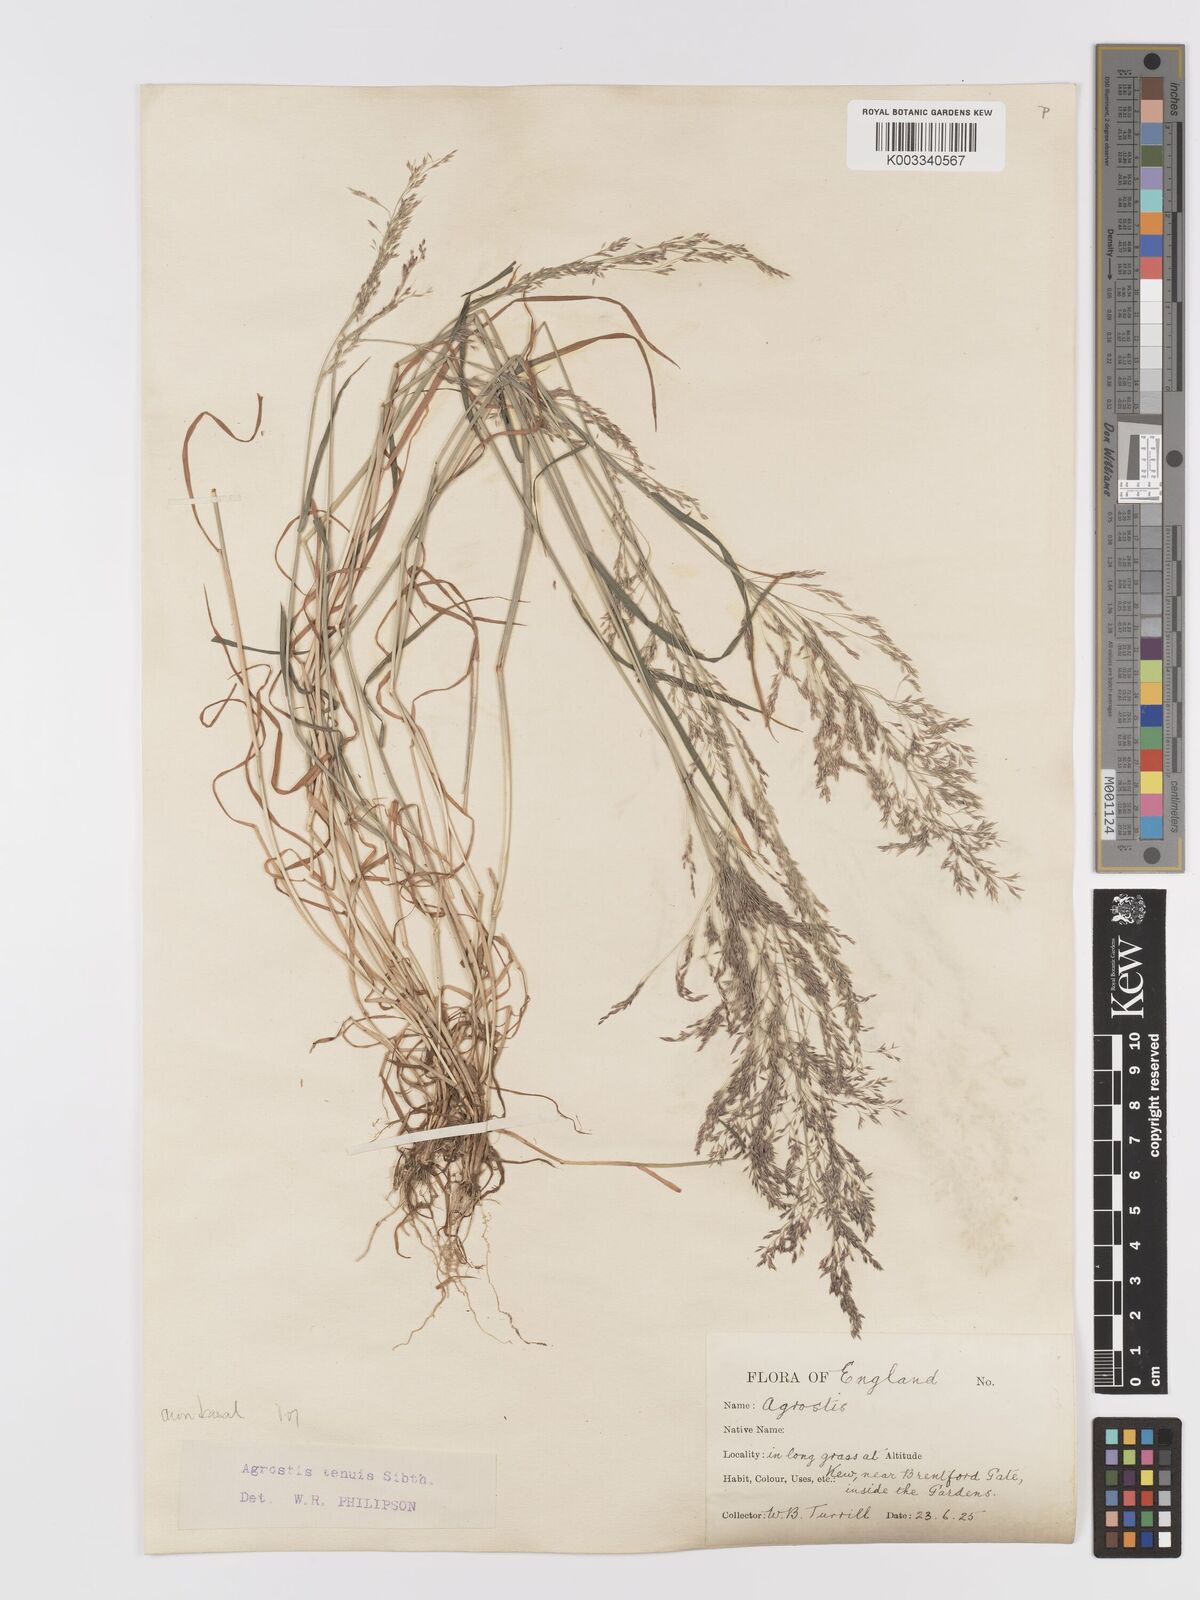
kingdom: Plantae
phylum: Tracheophyta
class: Liliopsida
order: Poales
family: Poaceae
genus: Agrostis
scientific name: Agrostis capillaris
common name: Colonial bentgrass
